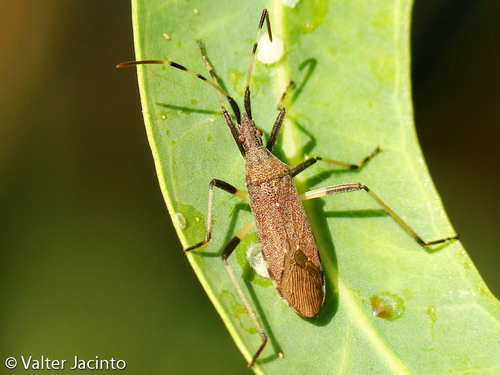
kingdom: Animalia
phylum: Arthropoda
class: Insecta
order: Hemiptera
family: Stenocephalidae
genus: Dicranocephalus
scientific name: Dicranocephalus albipes
